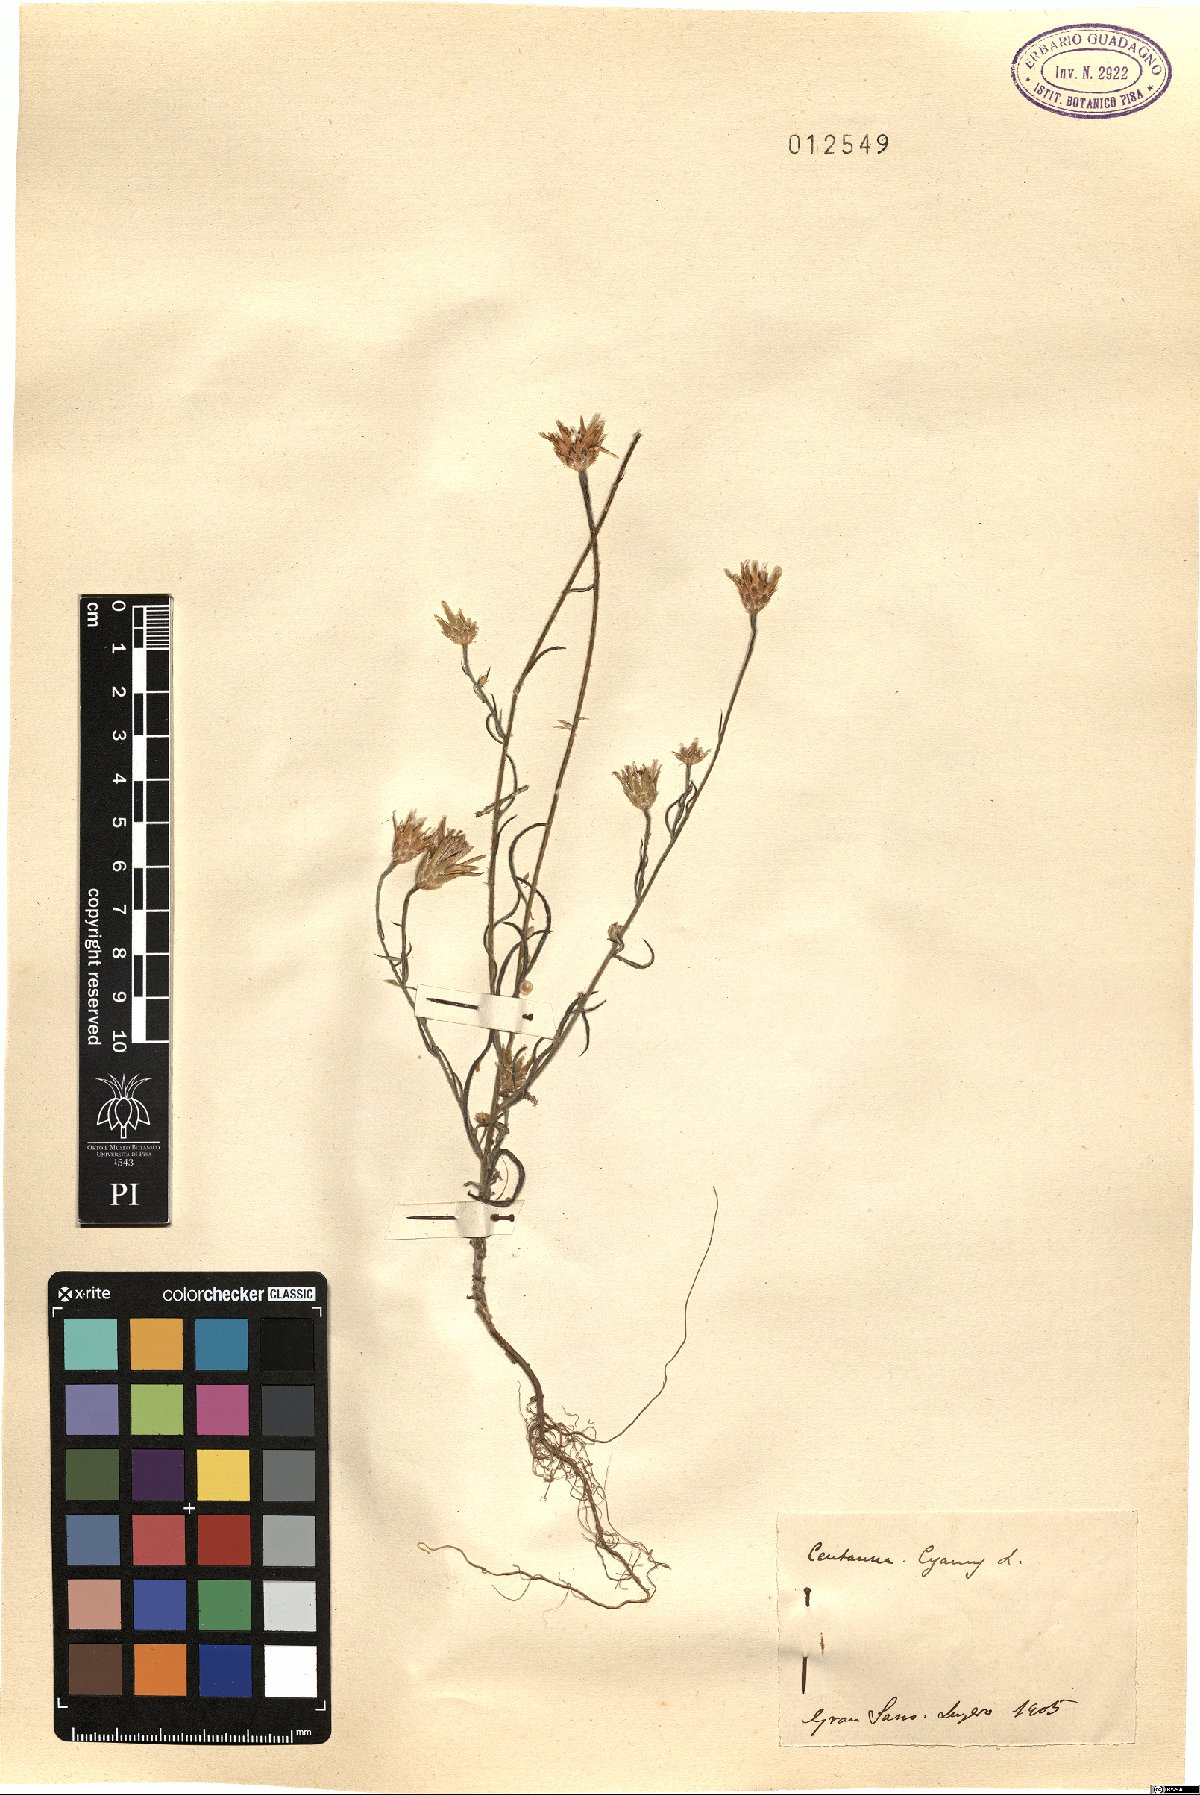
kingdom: Plantae
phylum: Tracheophyta
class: Magnoliopsida
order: Asterales
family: Asteraceae
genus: Centaurea
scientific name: Centaurea cyanus
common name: Cornflower
